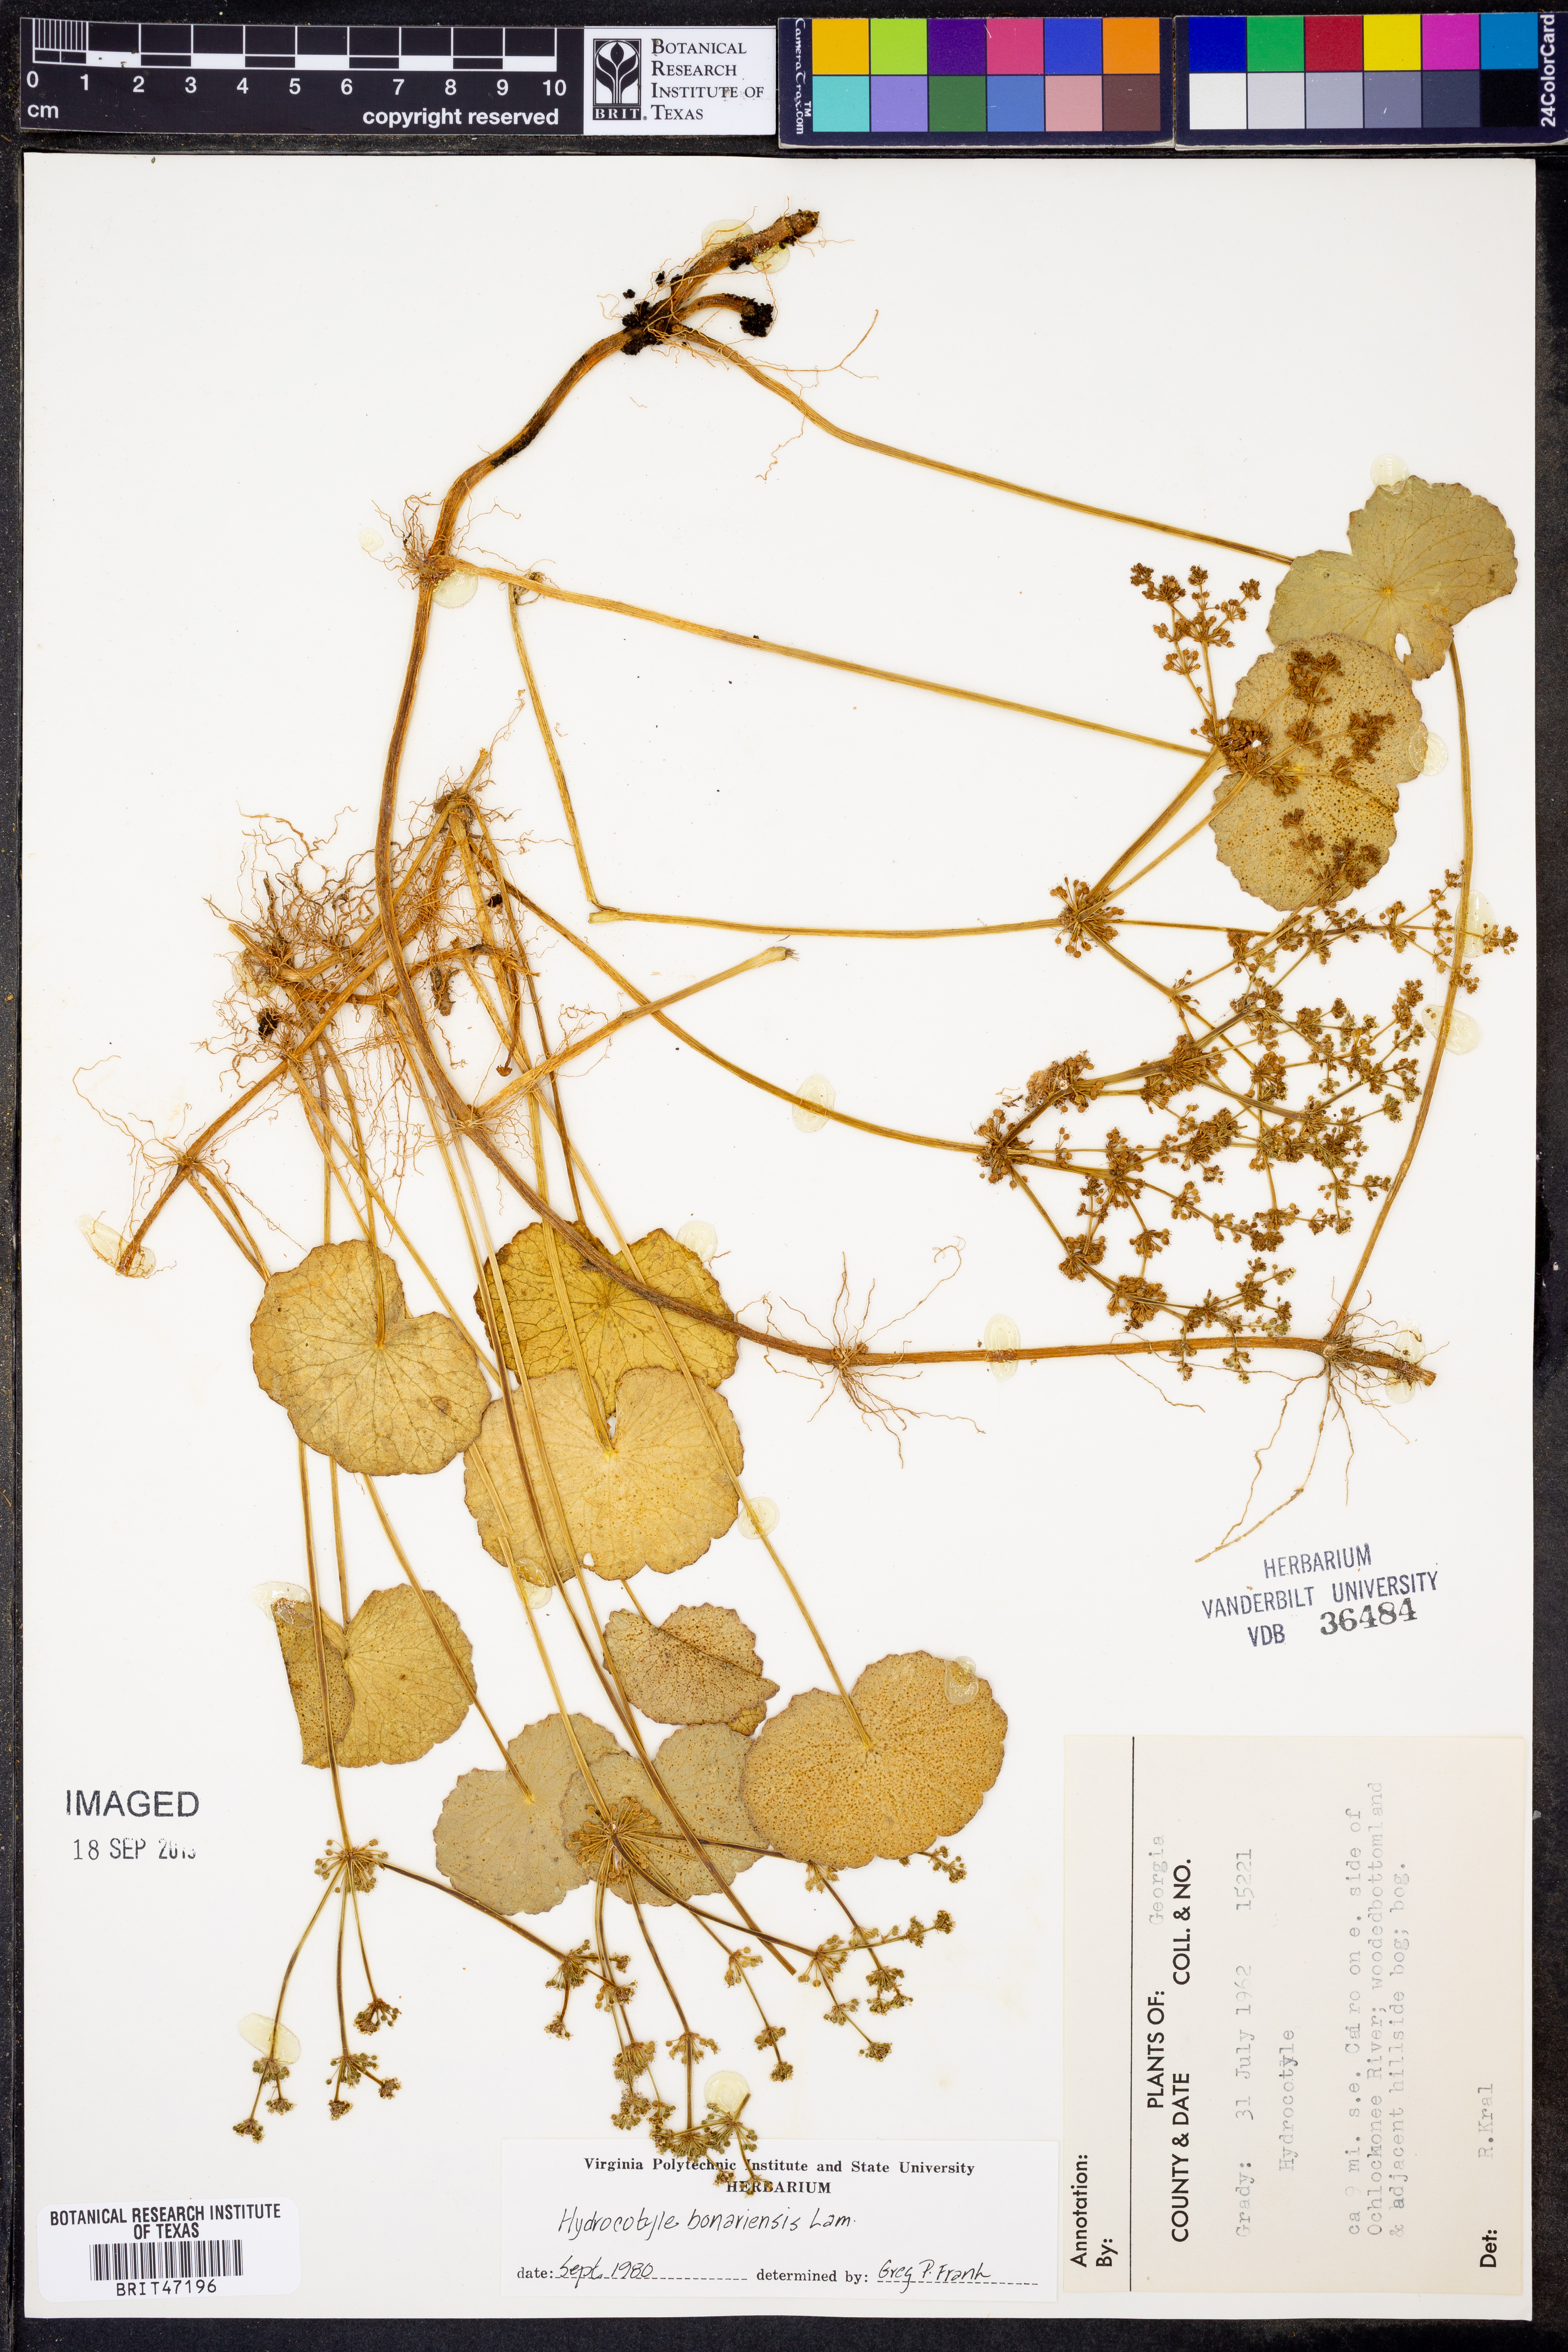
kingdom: Plantae
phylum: Tracheophyta
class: Magnoliopsida
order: Apiales
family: Araliaceae
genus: Hydrocotyle
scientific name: Hydrocotyle bonariensis
